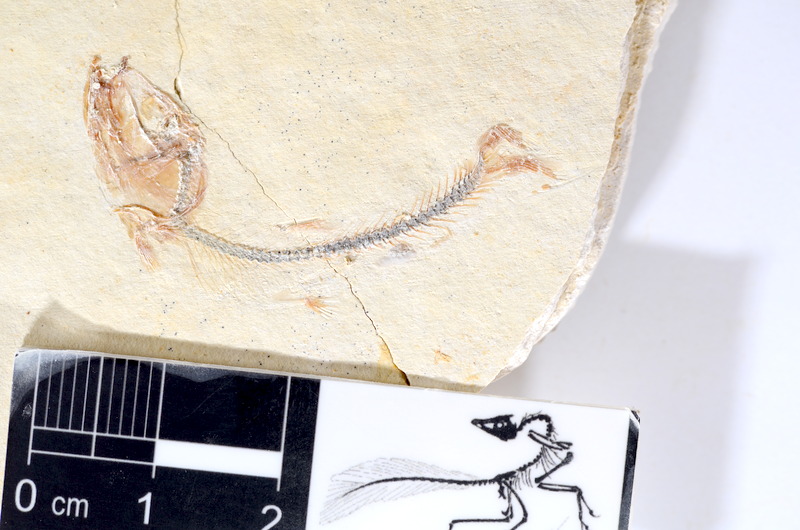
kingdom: Animalia
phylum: Chordata
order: Salmoniformes
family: Orthogonikleithridae
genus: Orthogonikleithrus
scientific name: Orthogonikleithrus hoelli
